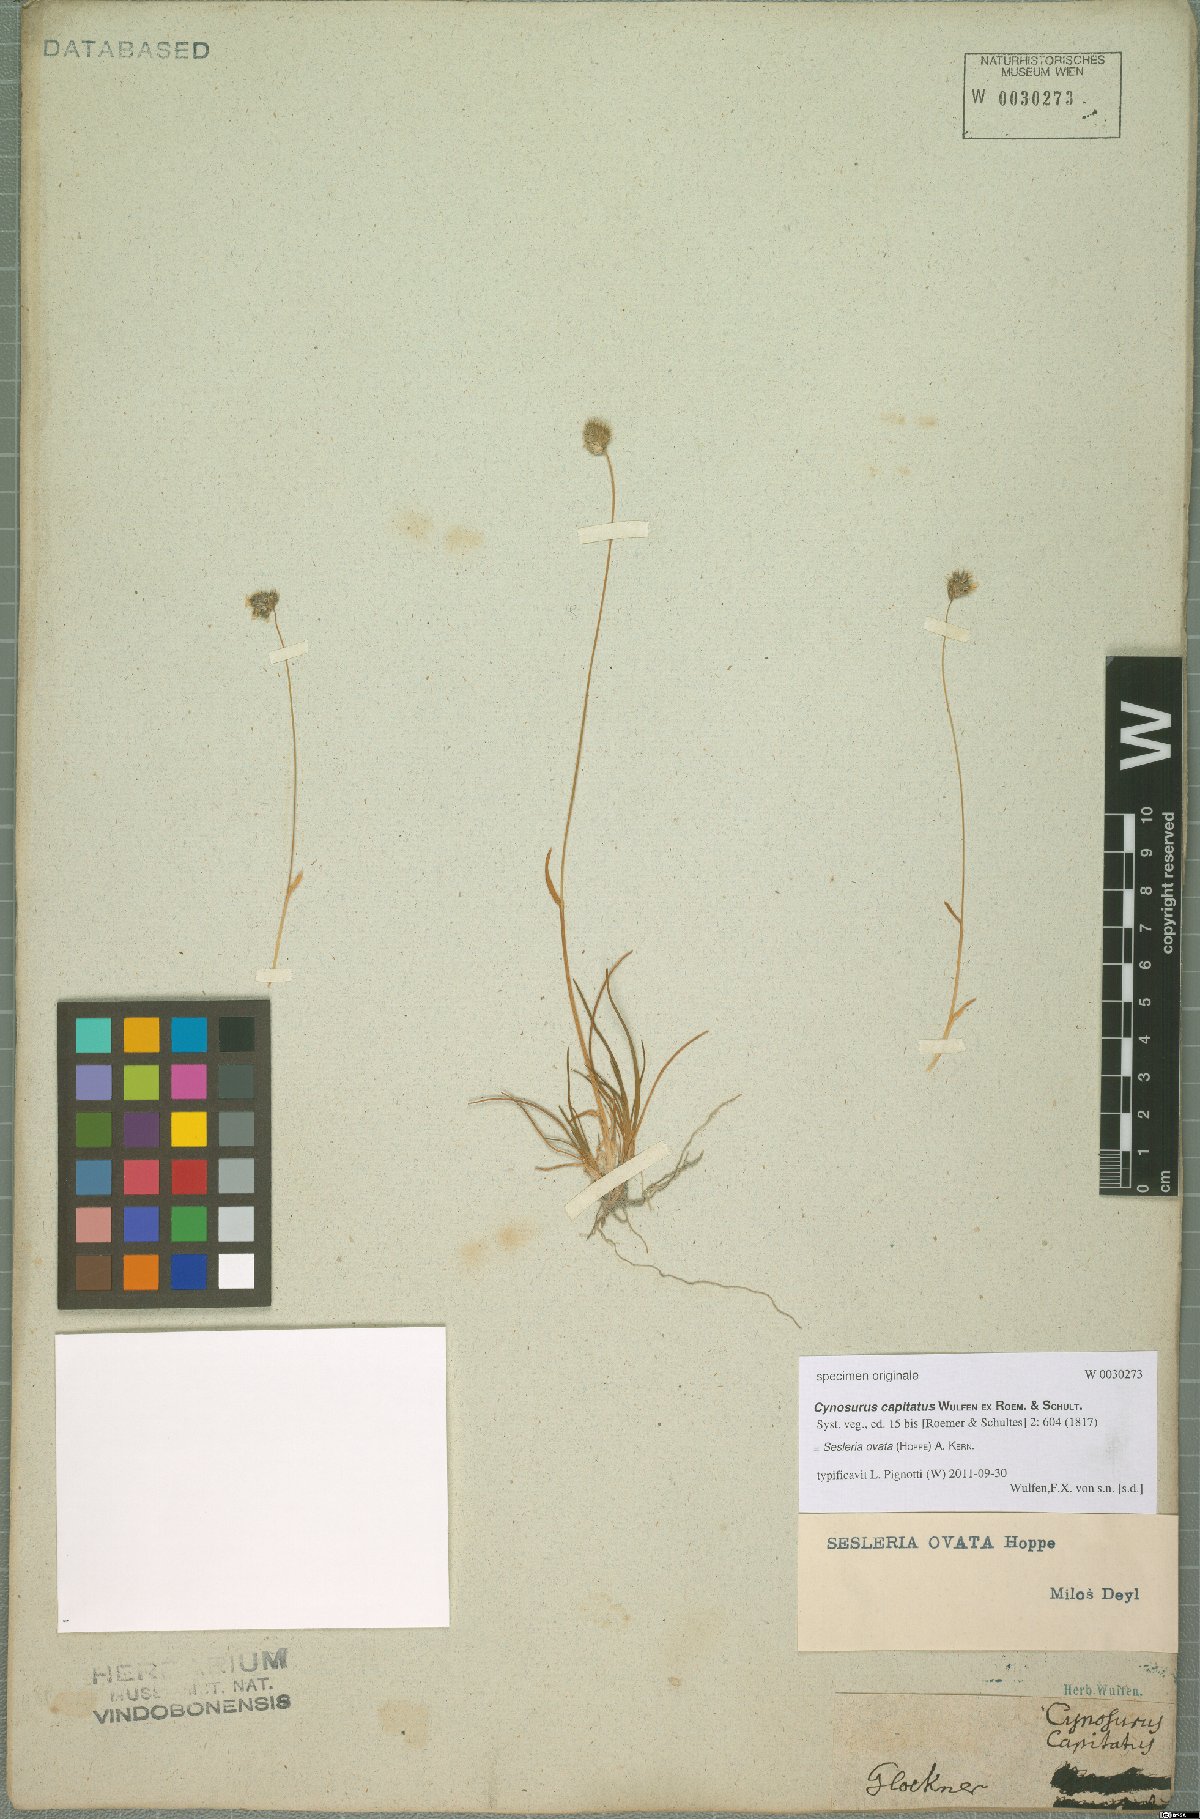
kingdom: Plantae
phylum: Tracheophyta
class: Liliopsida
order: Poales
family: Poaceae
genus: Psilathera
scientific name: Psilathera ovata
